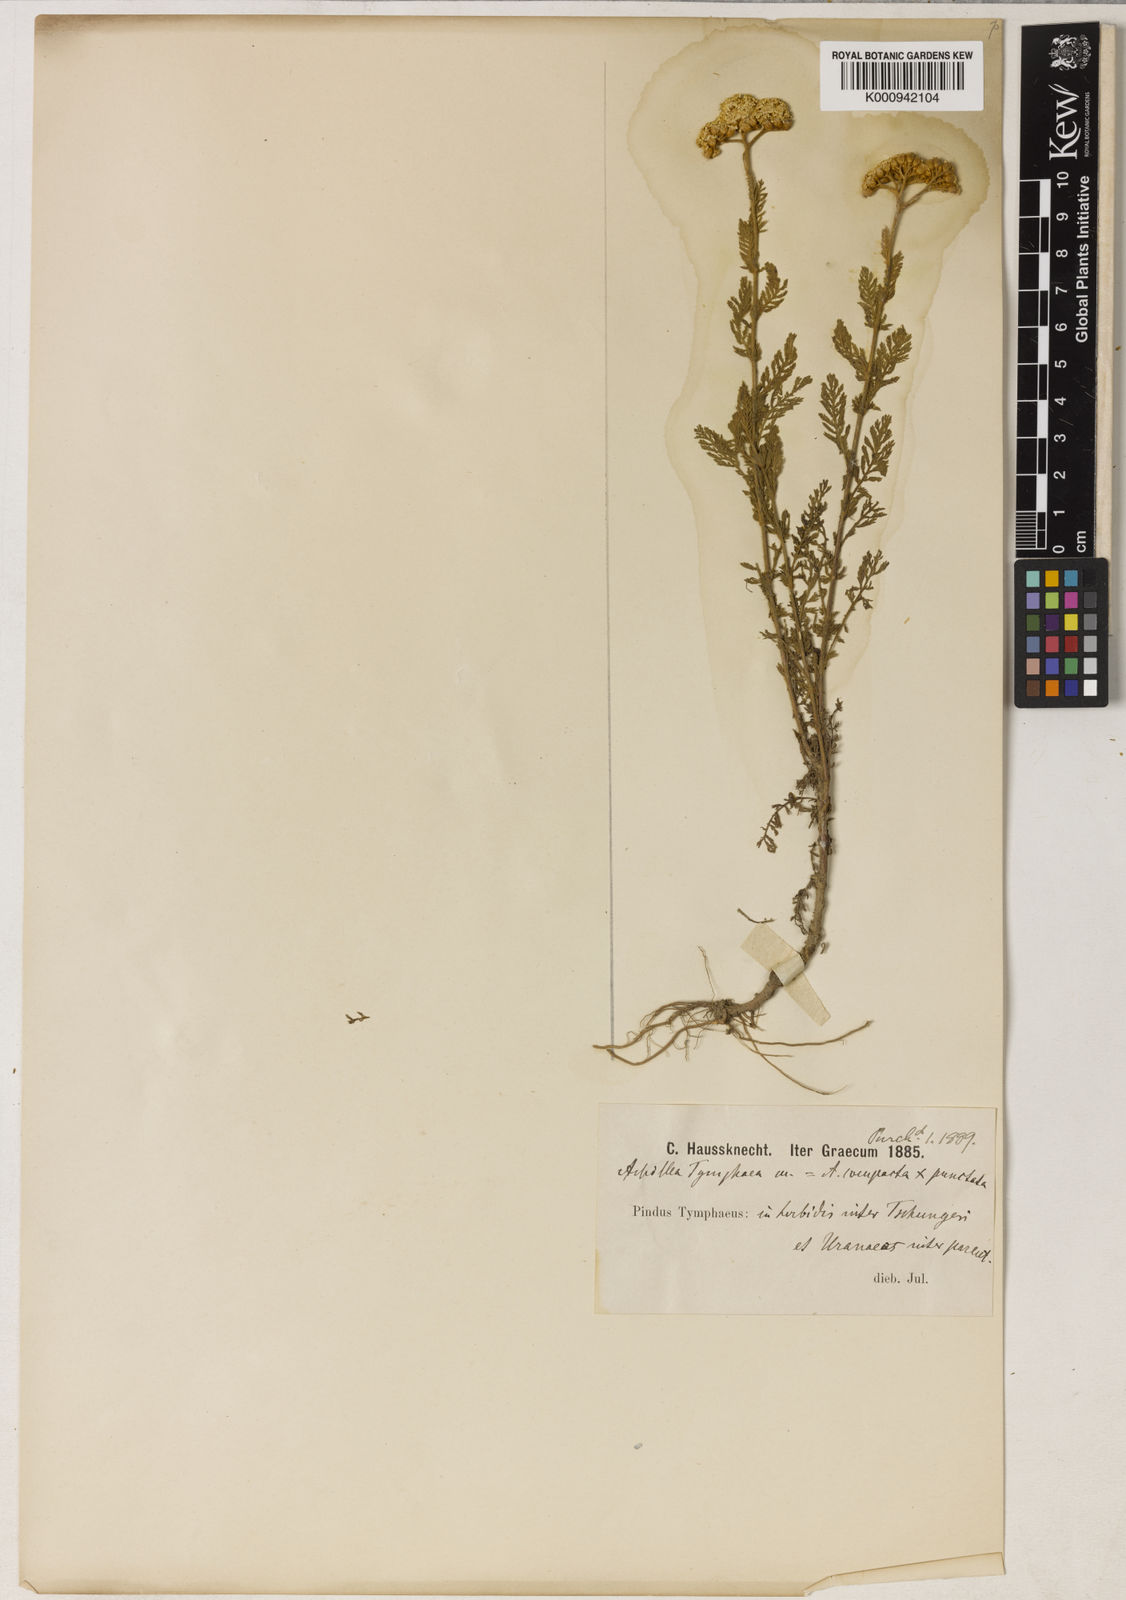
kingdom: Plantae
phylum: Tracheophyta
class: Magnoliopsida
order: Asterales
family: Asteraceae
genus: Achillea
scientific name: Achillea
